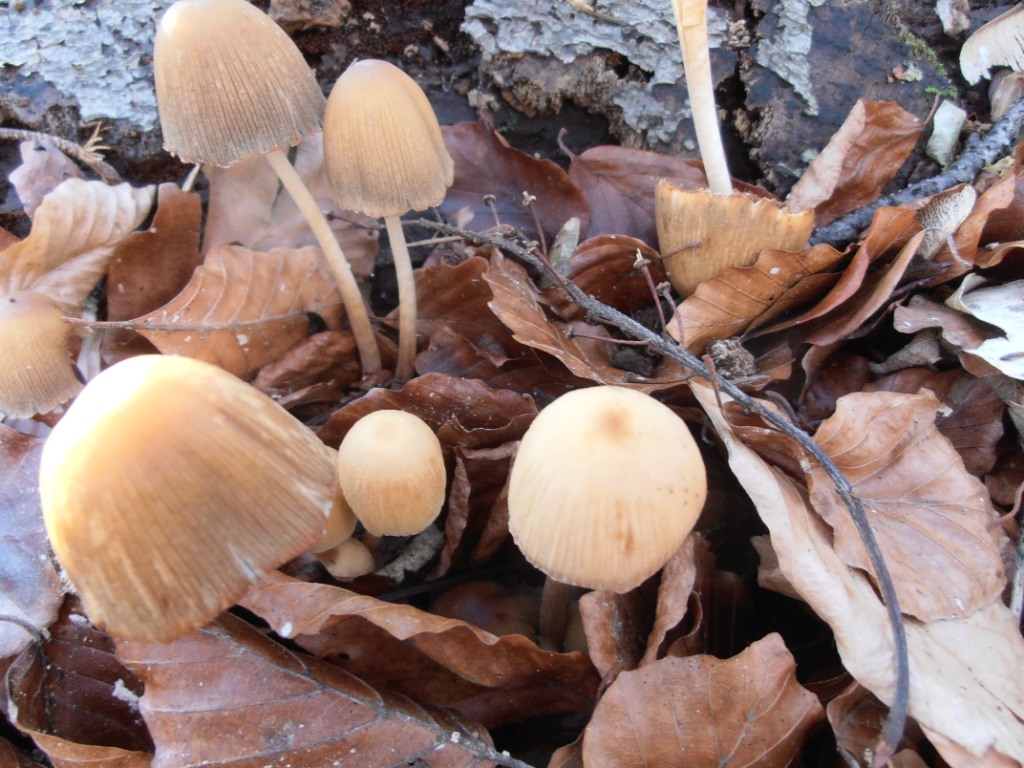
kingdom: Fungi
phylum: Basidiomycota
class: Agaricomycetes
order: Agaricales
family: Psathyrellaceae
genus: Coprinellus
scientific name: Coprinellus micaceus
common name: glimmer-blækhat
